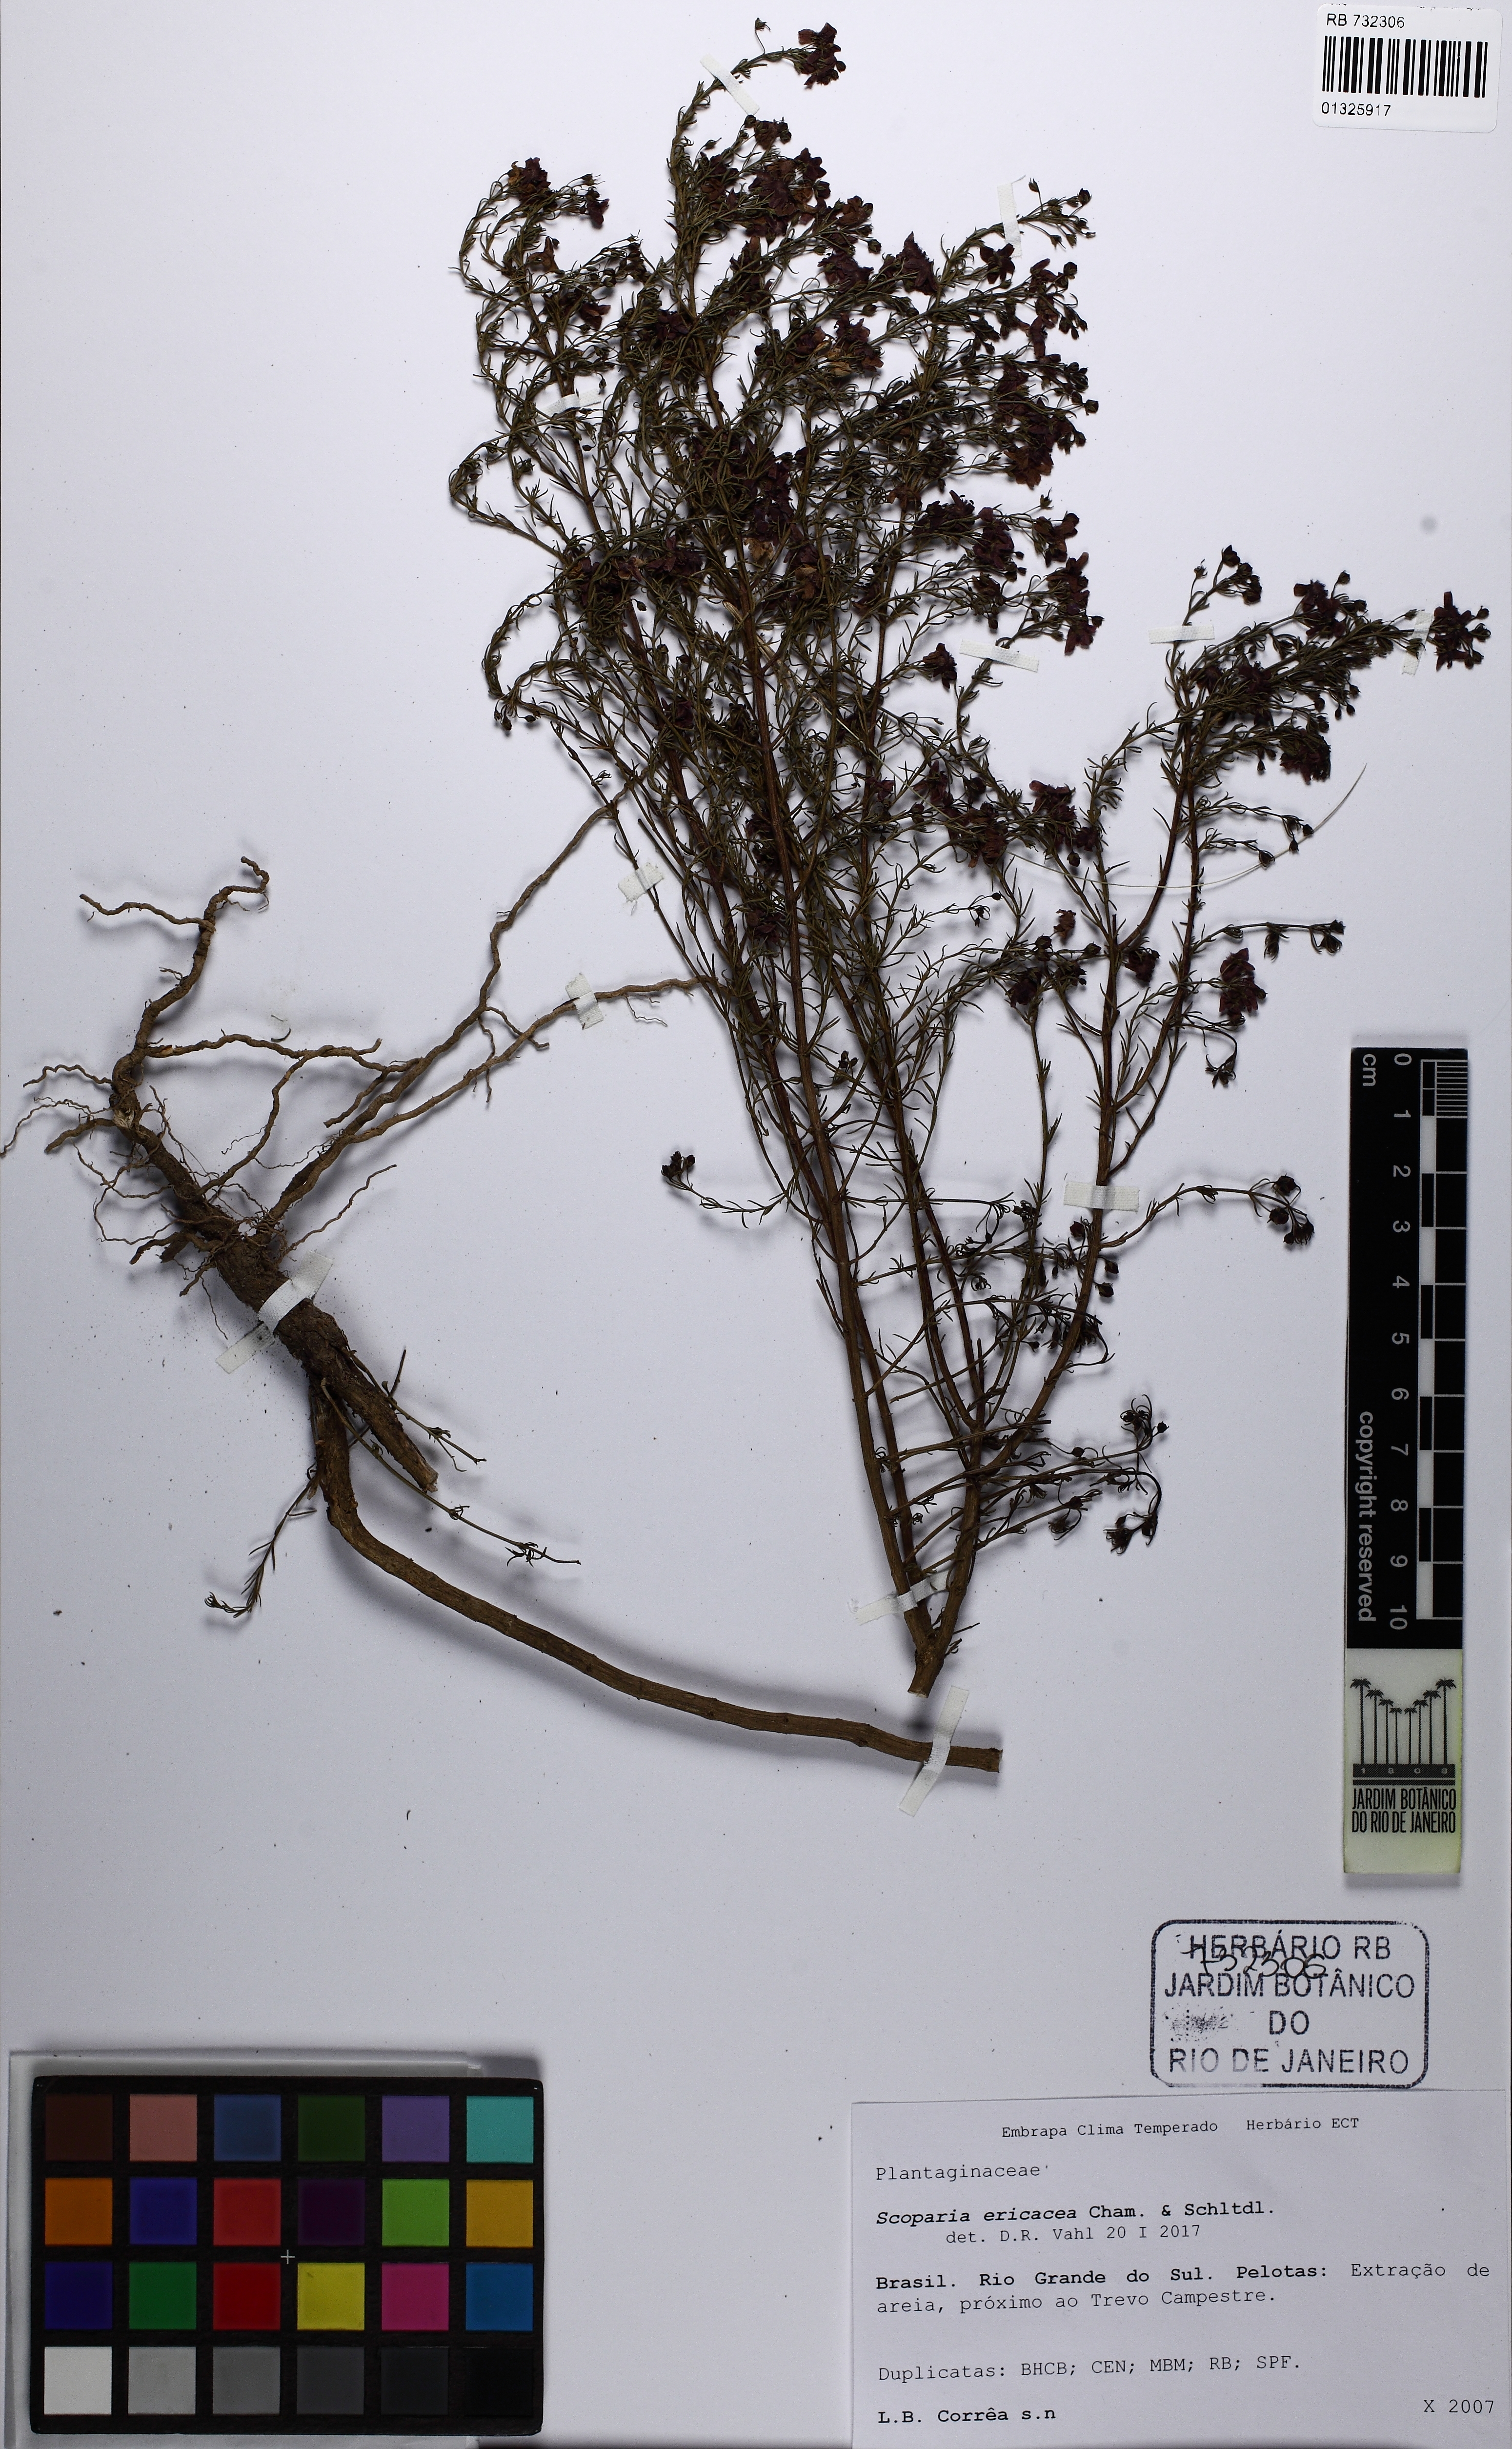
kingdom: Plantae
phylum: Tracheophyta
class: Magnoliopsida
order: Lamiales
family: Plantaginaceae
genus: Scoparia
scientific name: Scoparia ericacea
